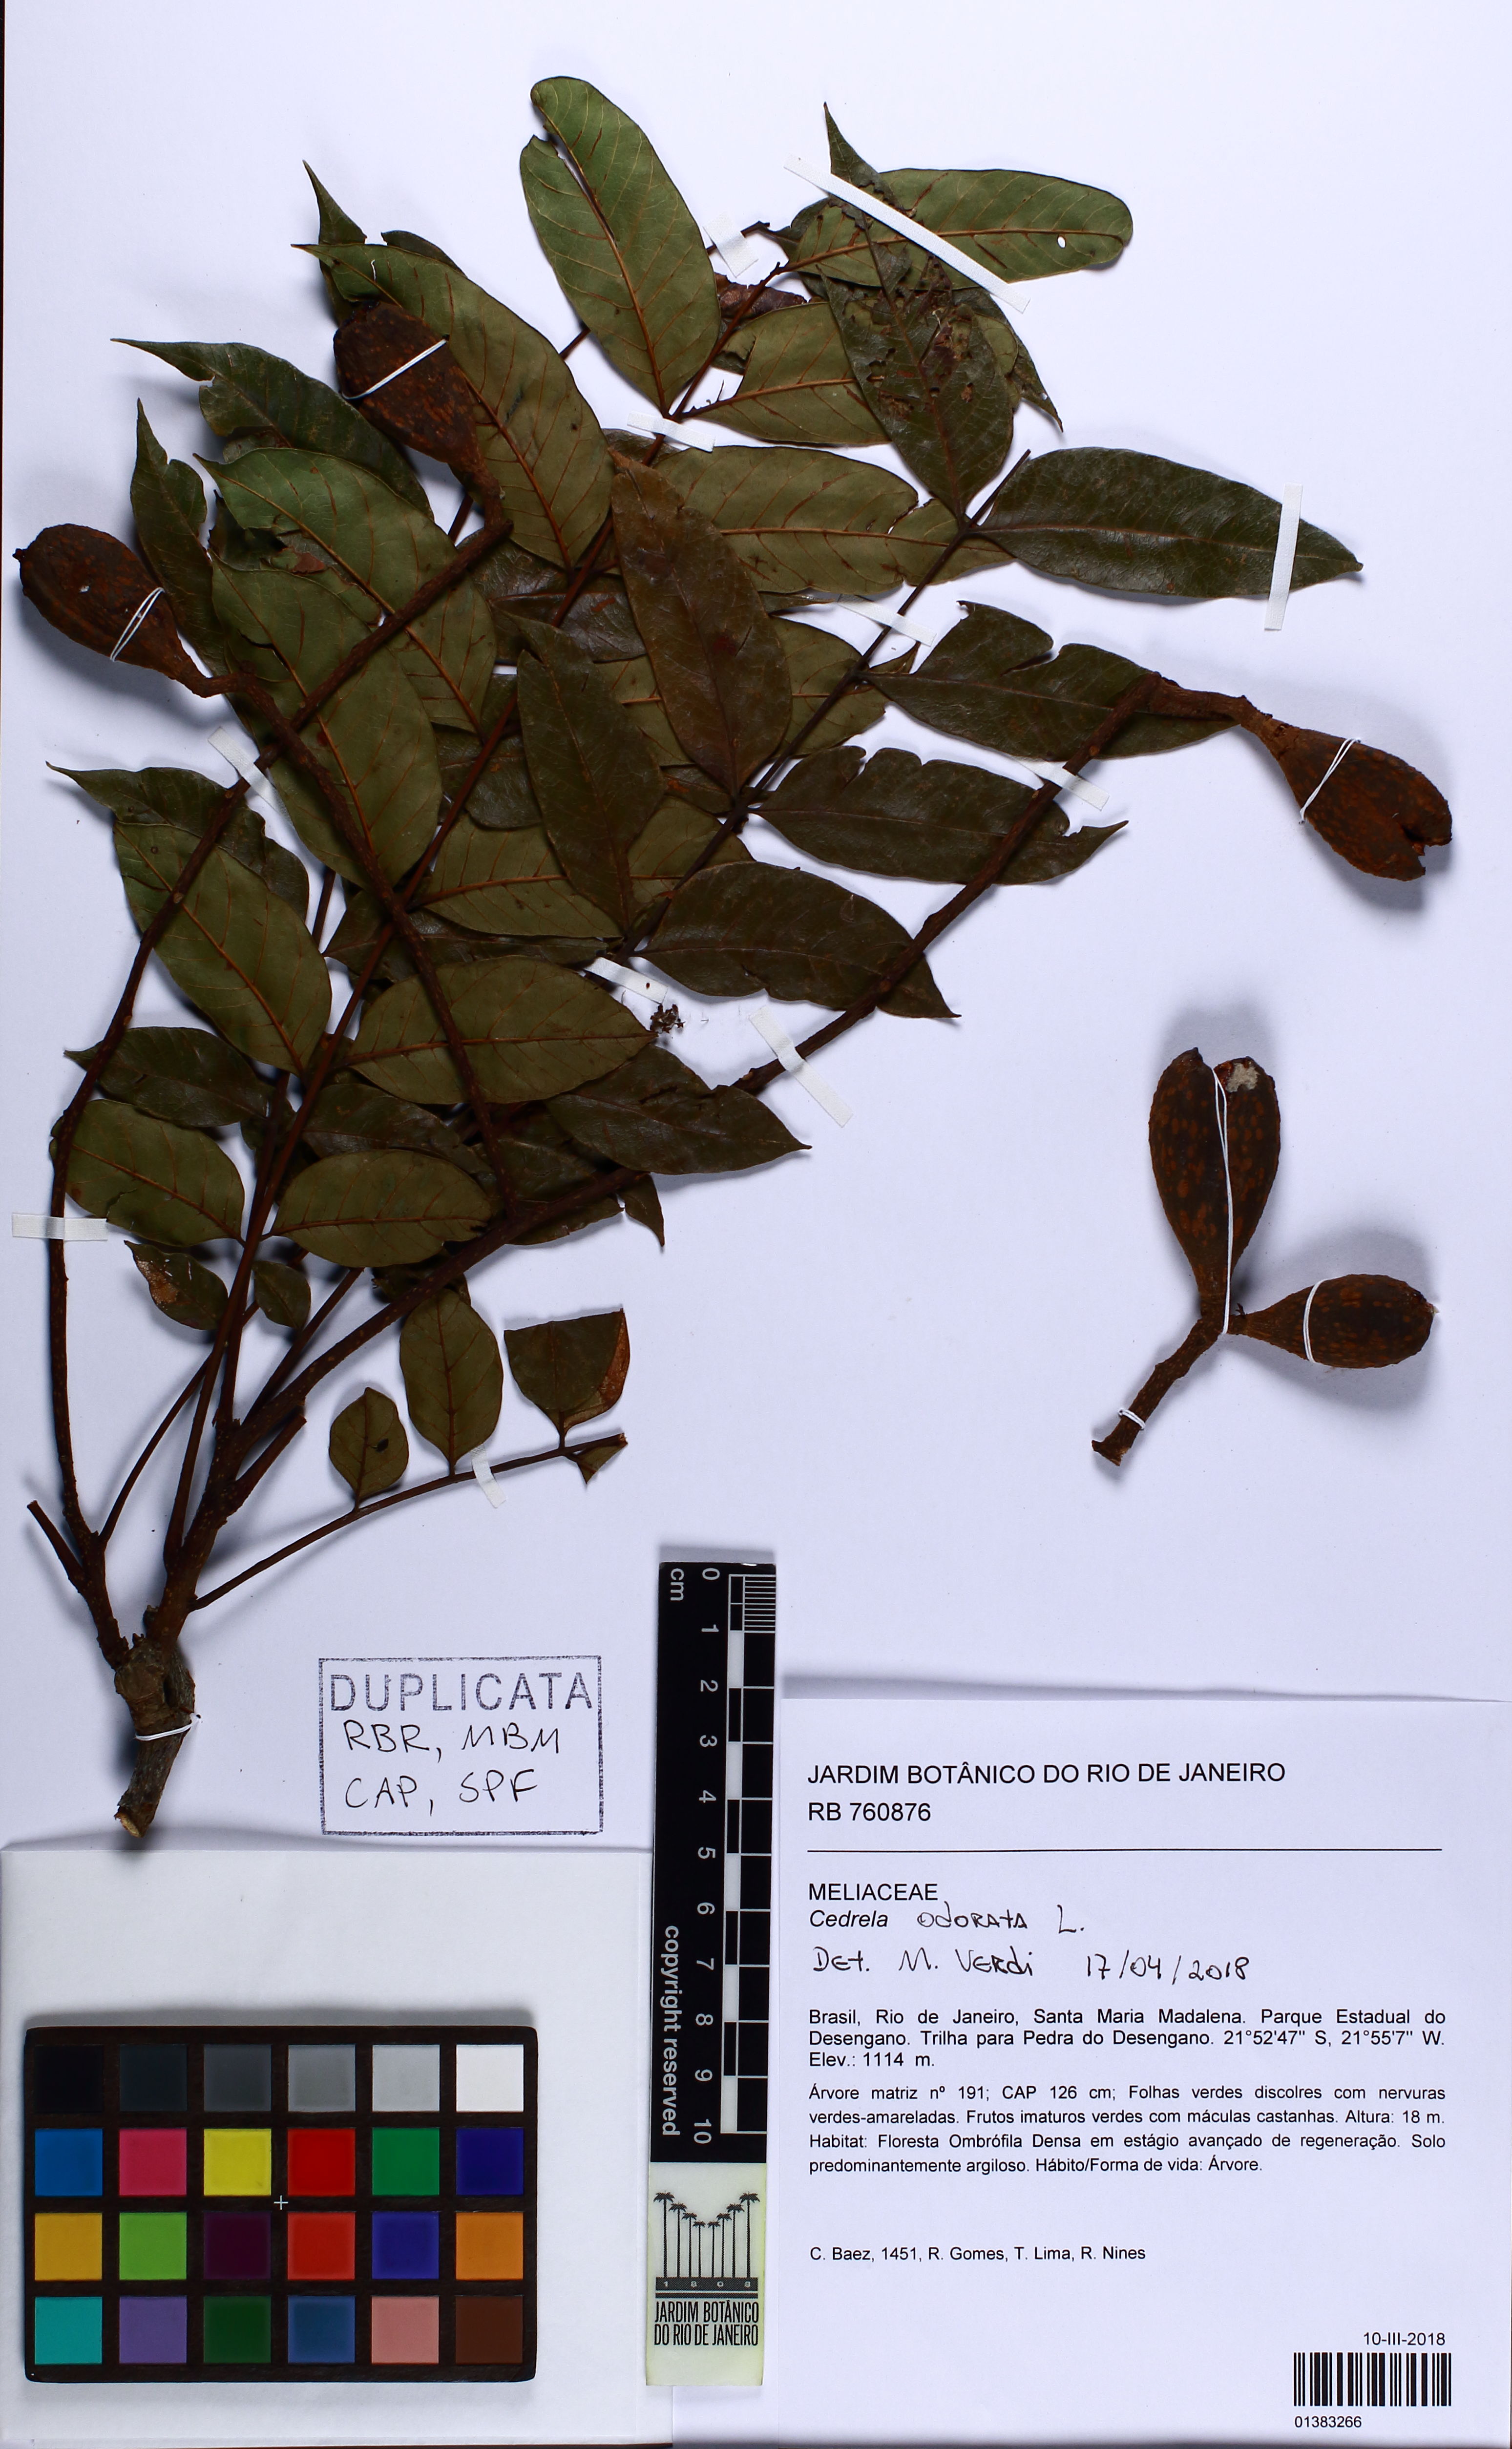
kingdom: Plantae
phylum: Tracheophyta
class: Magnoliopsida
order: Sapindales
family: Meliaceae
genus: Cedrela
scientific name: Cedrela odorata
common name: Red cedar
